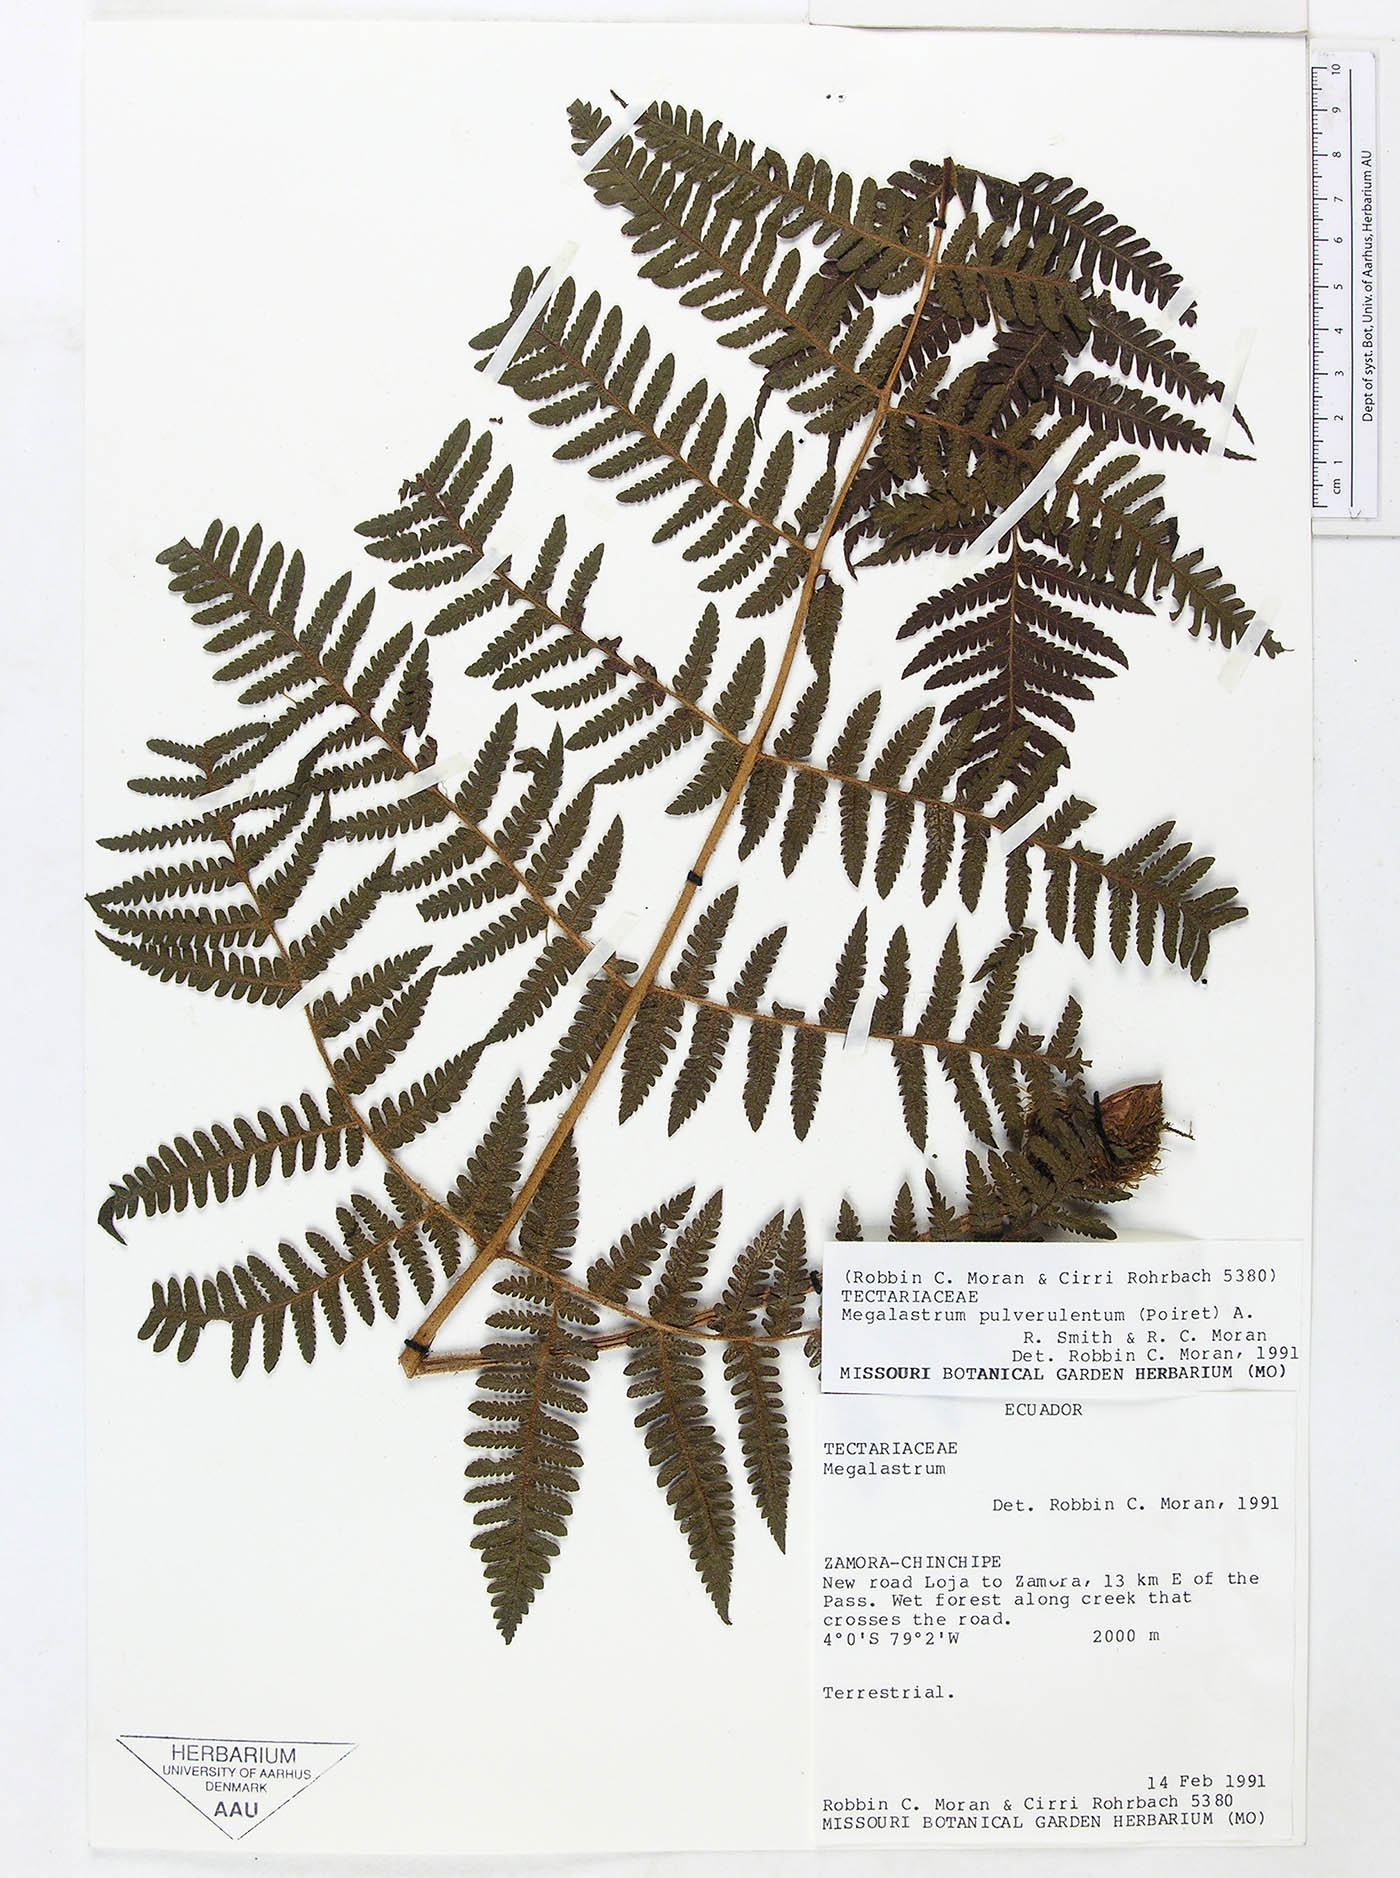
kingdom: Plantae
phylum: Tracheophyta
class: Polypodiopsida
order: Polypodiales
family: Dryopteridaceae
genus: Megalastrum
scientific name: Megalastrum nanum
